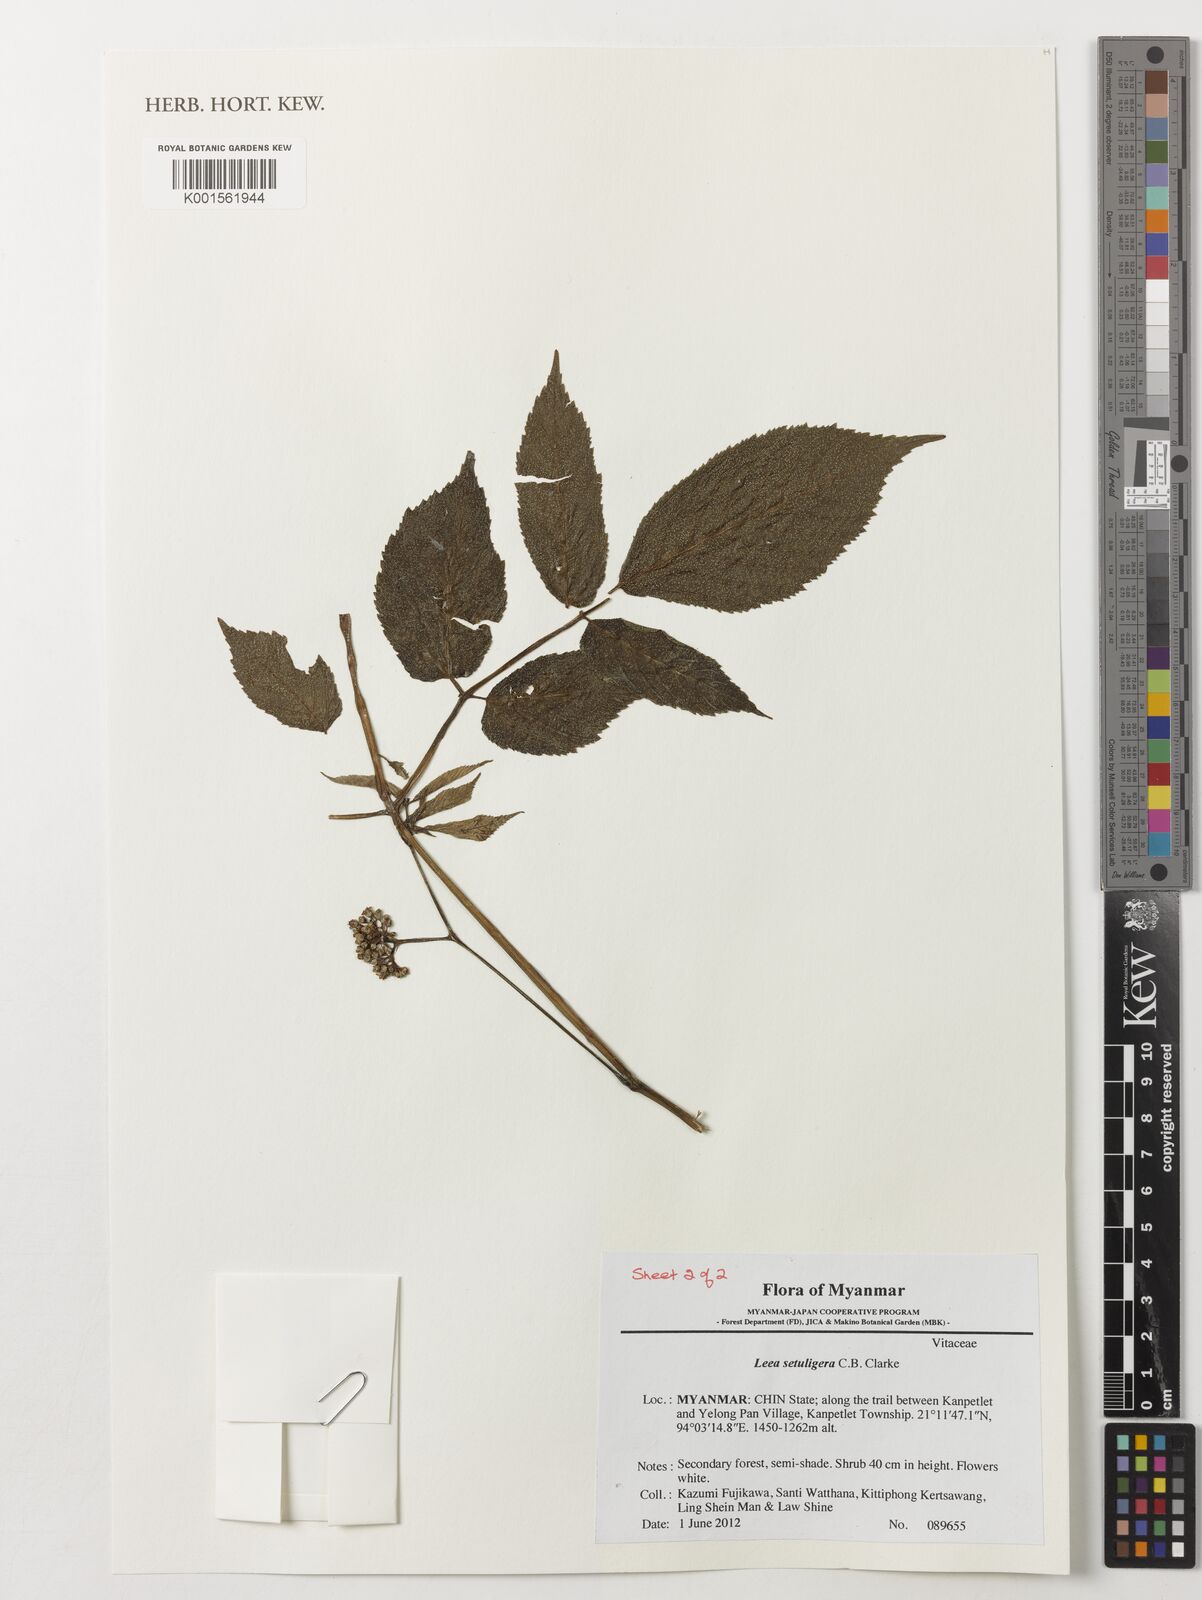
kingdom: Plantae
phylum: Tracheophyta
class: Magnoliopsida
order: Vitales
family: Vitaceae
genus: Leea
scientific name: Leea setuligera
